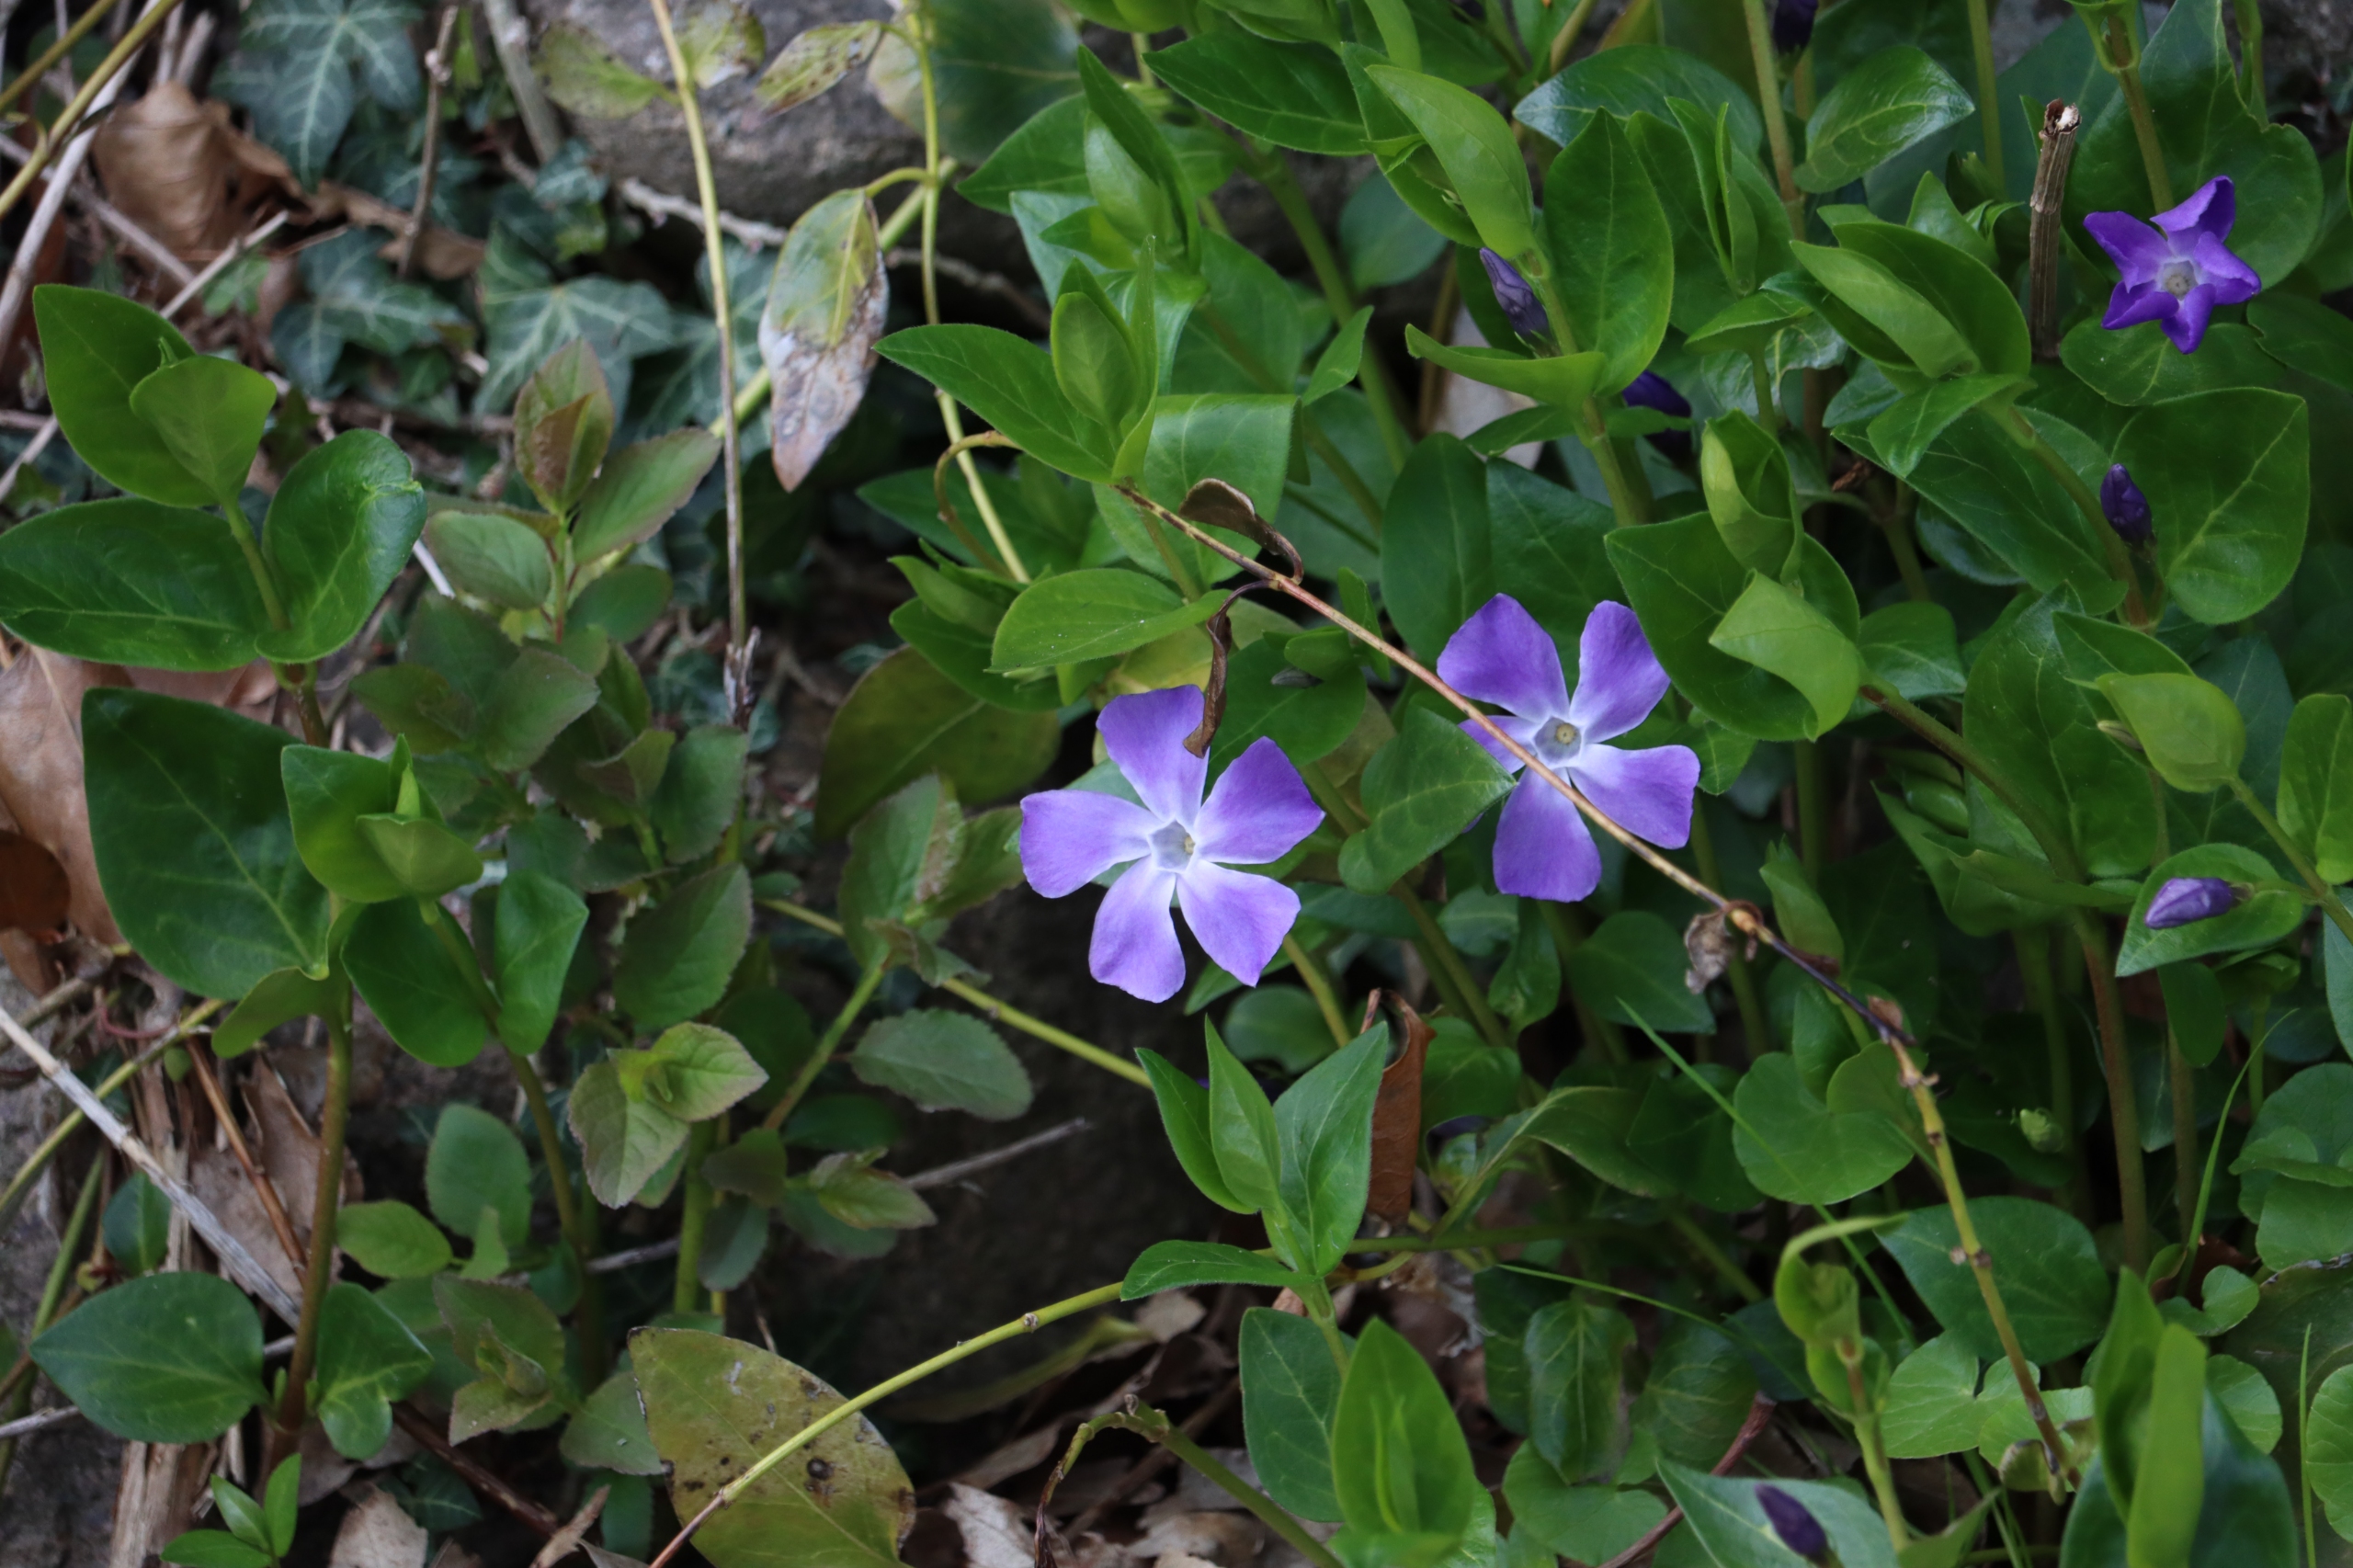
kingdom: Plantae
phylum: Tracheophyta
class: Magnoliopsida
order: Gentianales
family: Apocynaceae
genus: Vinca
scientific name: Vinca minor
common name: Liden singrøn
